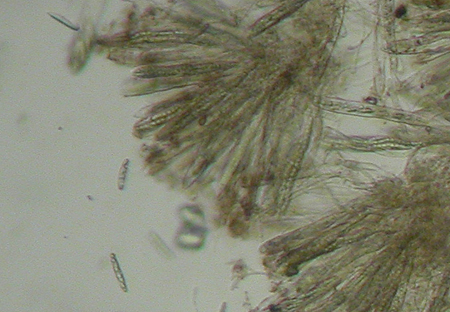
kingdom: Fungi
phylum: Ascomycota
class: Geoglossomycetes
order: Geoglossales
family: Geoglossaceae
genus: Geoglossum
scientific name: Geoglossum atropurpureum
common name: purpursort farvetunge
